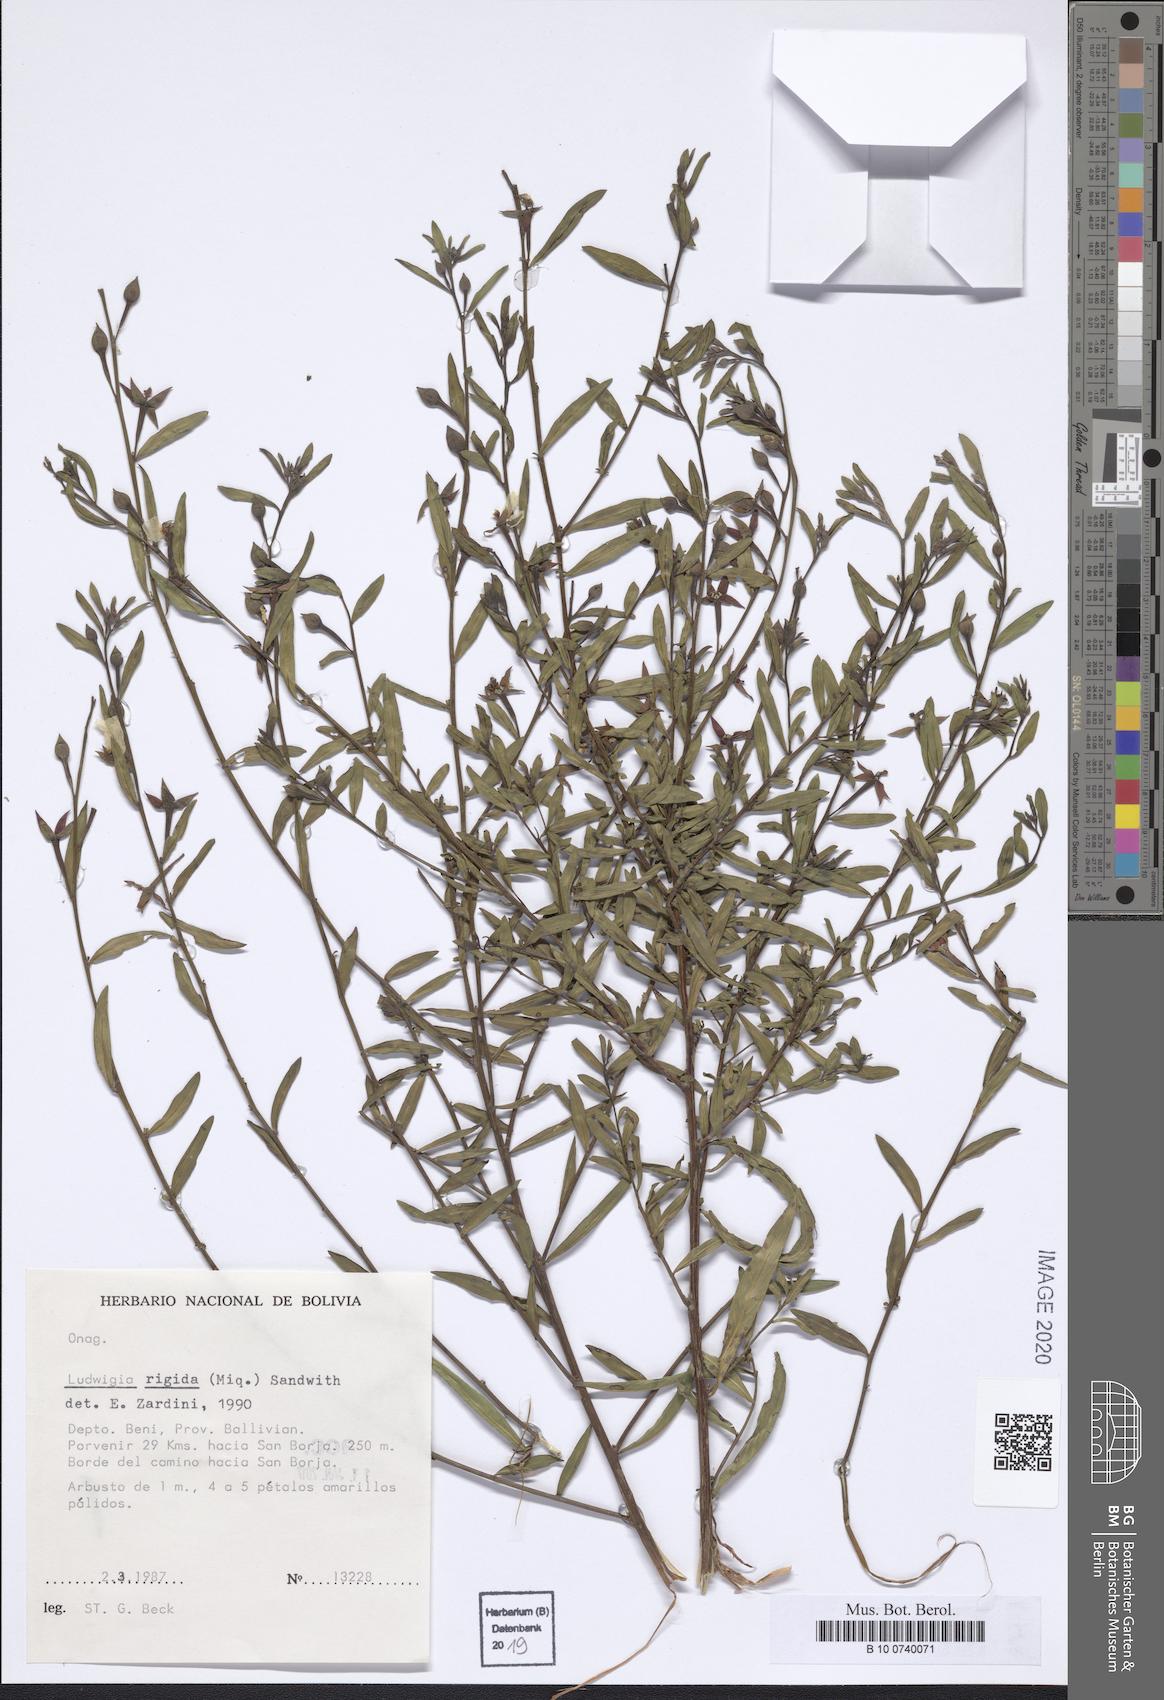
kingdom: Plantae
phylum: Tracheophyta
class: Magnoliopsida
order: Myrtales
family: Onagraceae
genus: Ludwigia
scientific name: Ludwigia rigida
